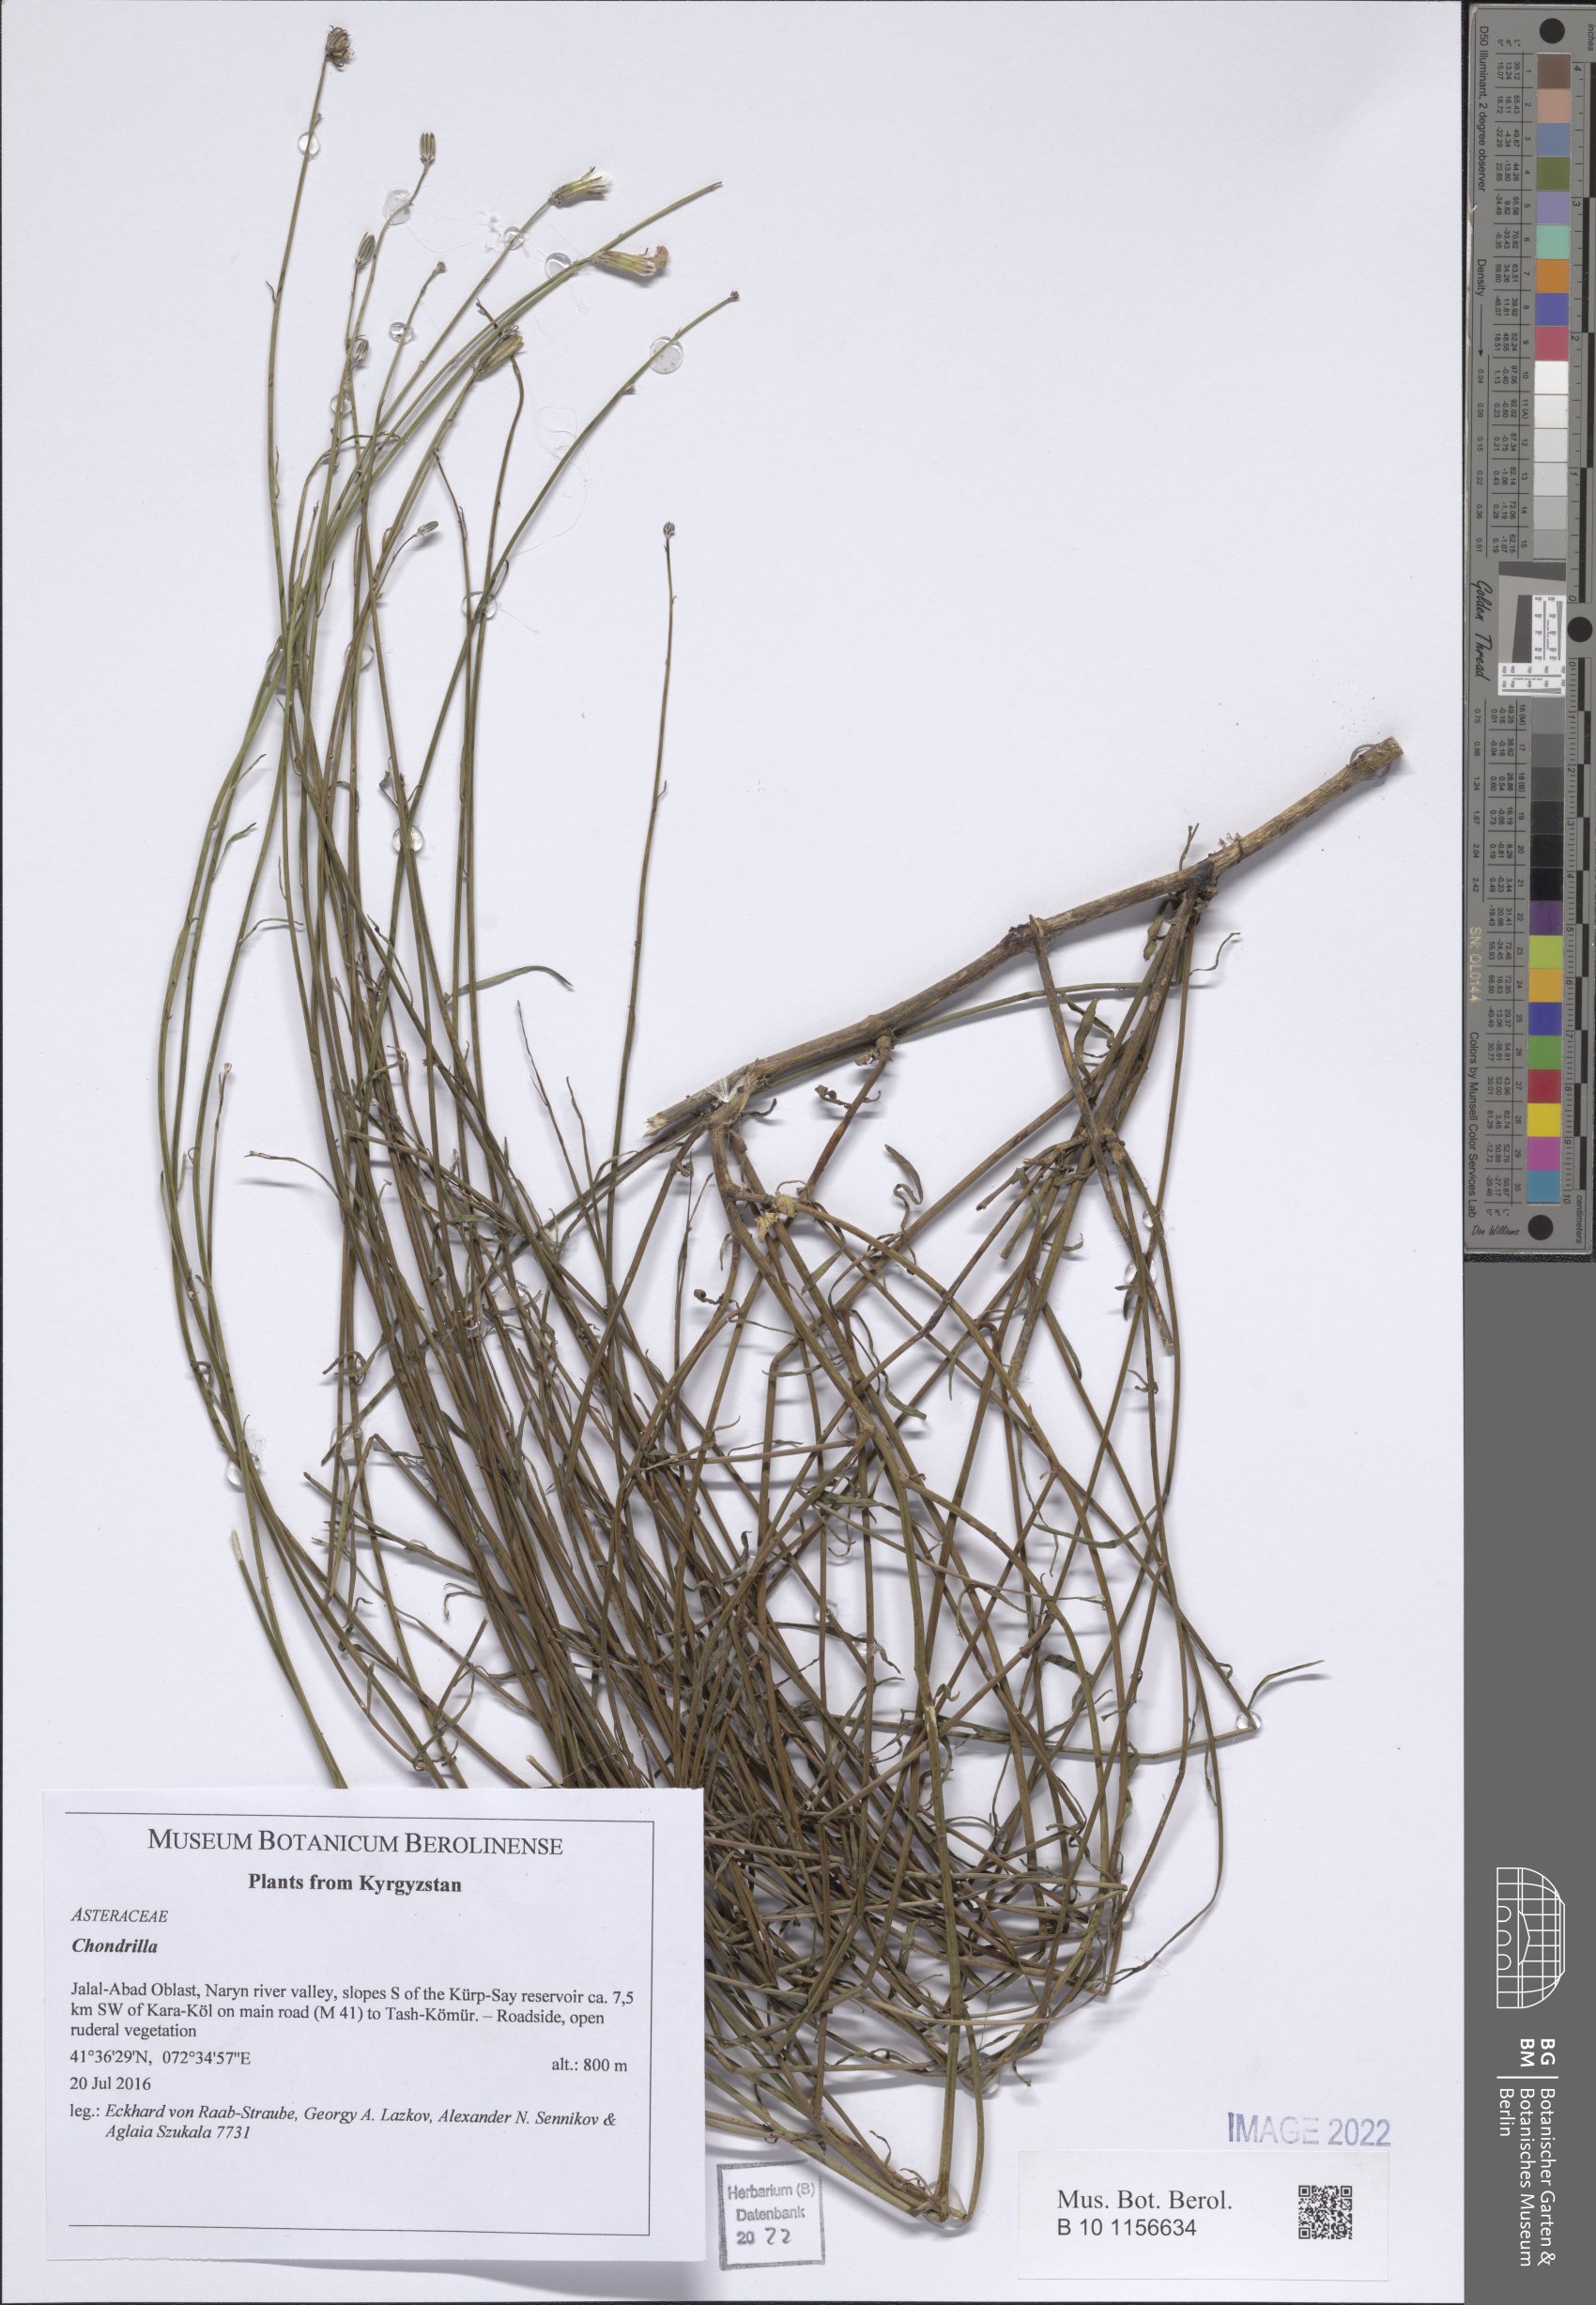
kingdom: Plantae
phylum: Tracheophyta
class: Magnoliopsida
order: Asterales
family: Asteraceae
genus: Chondrilla
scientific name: Chondrilla
